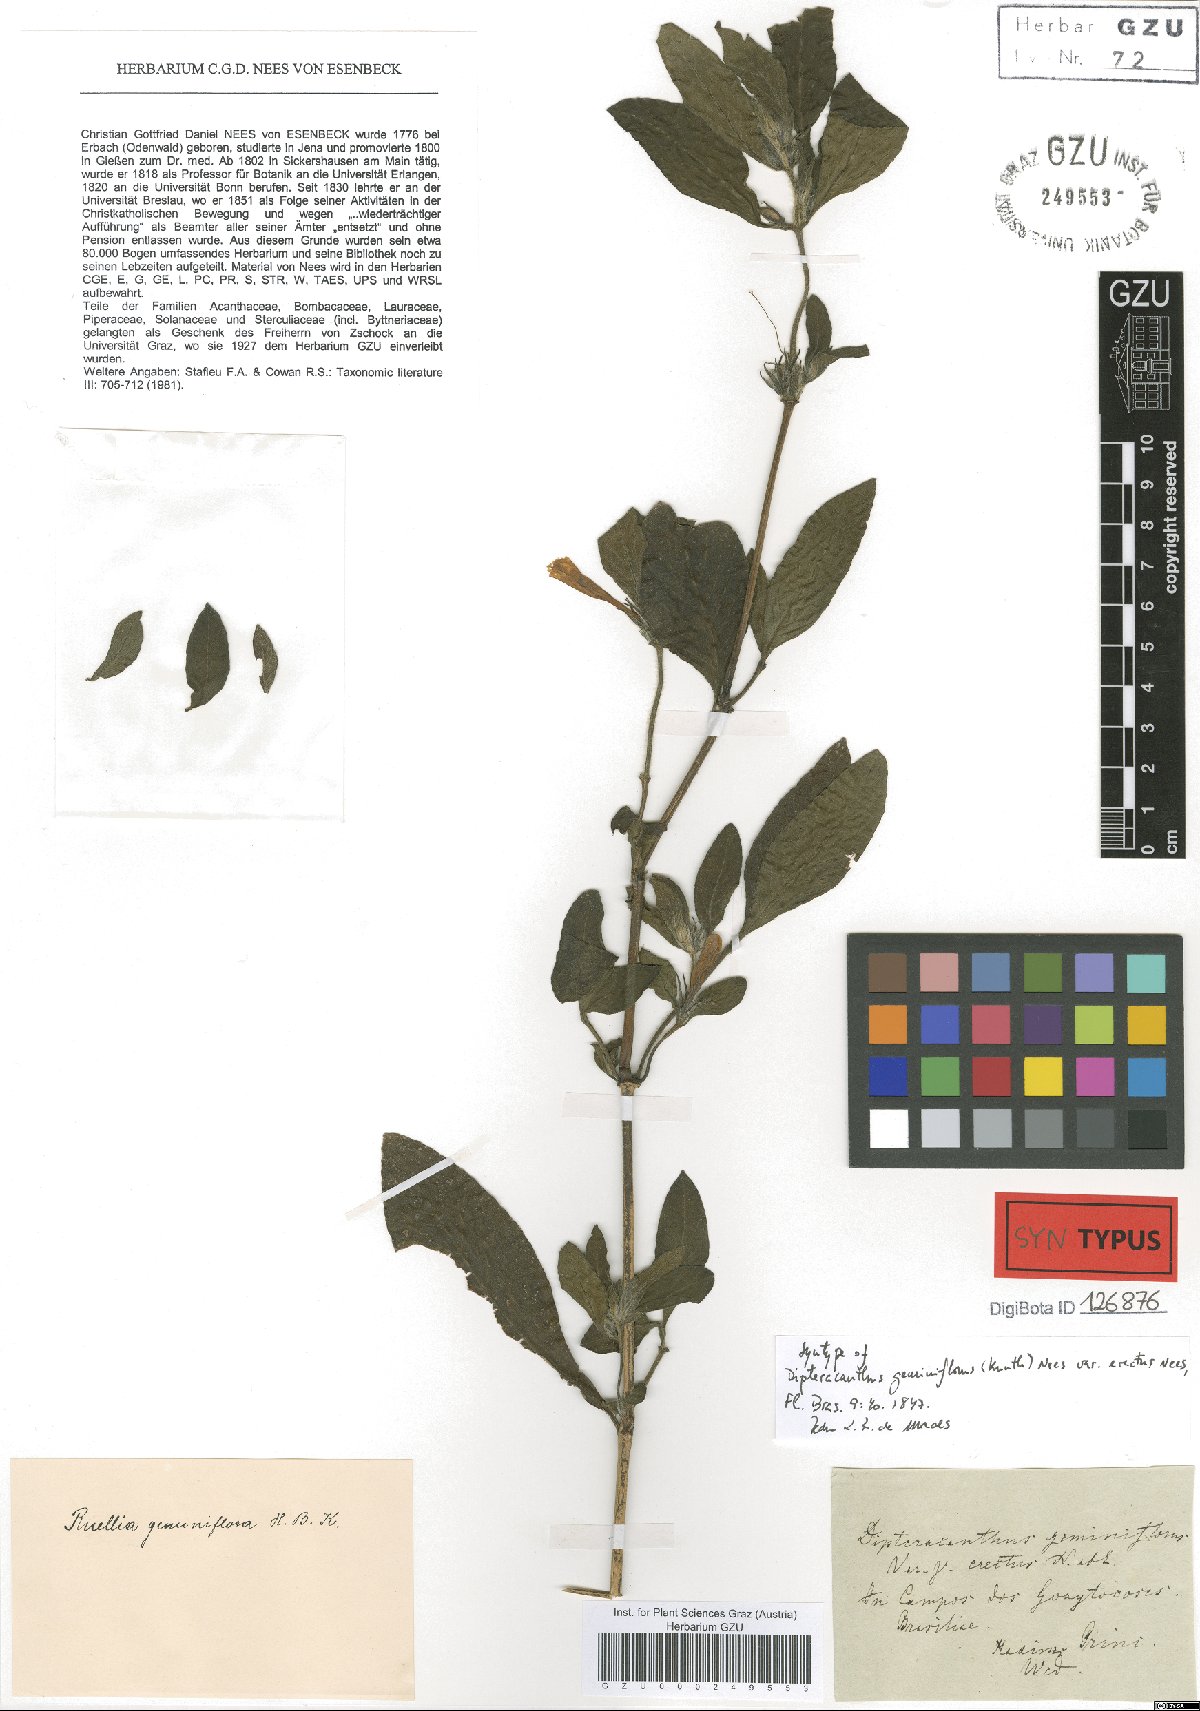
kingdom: Plantae
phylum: Tracheophyta
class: Magnoliopsida
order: Lamiales
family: Acanthaceae
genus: Ruellia
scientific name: Ruellia geminiflora
